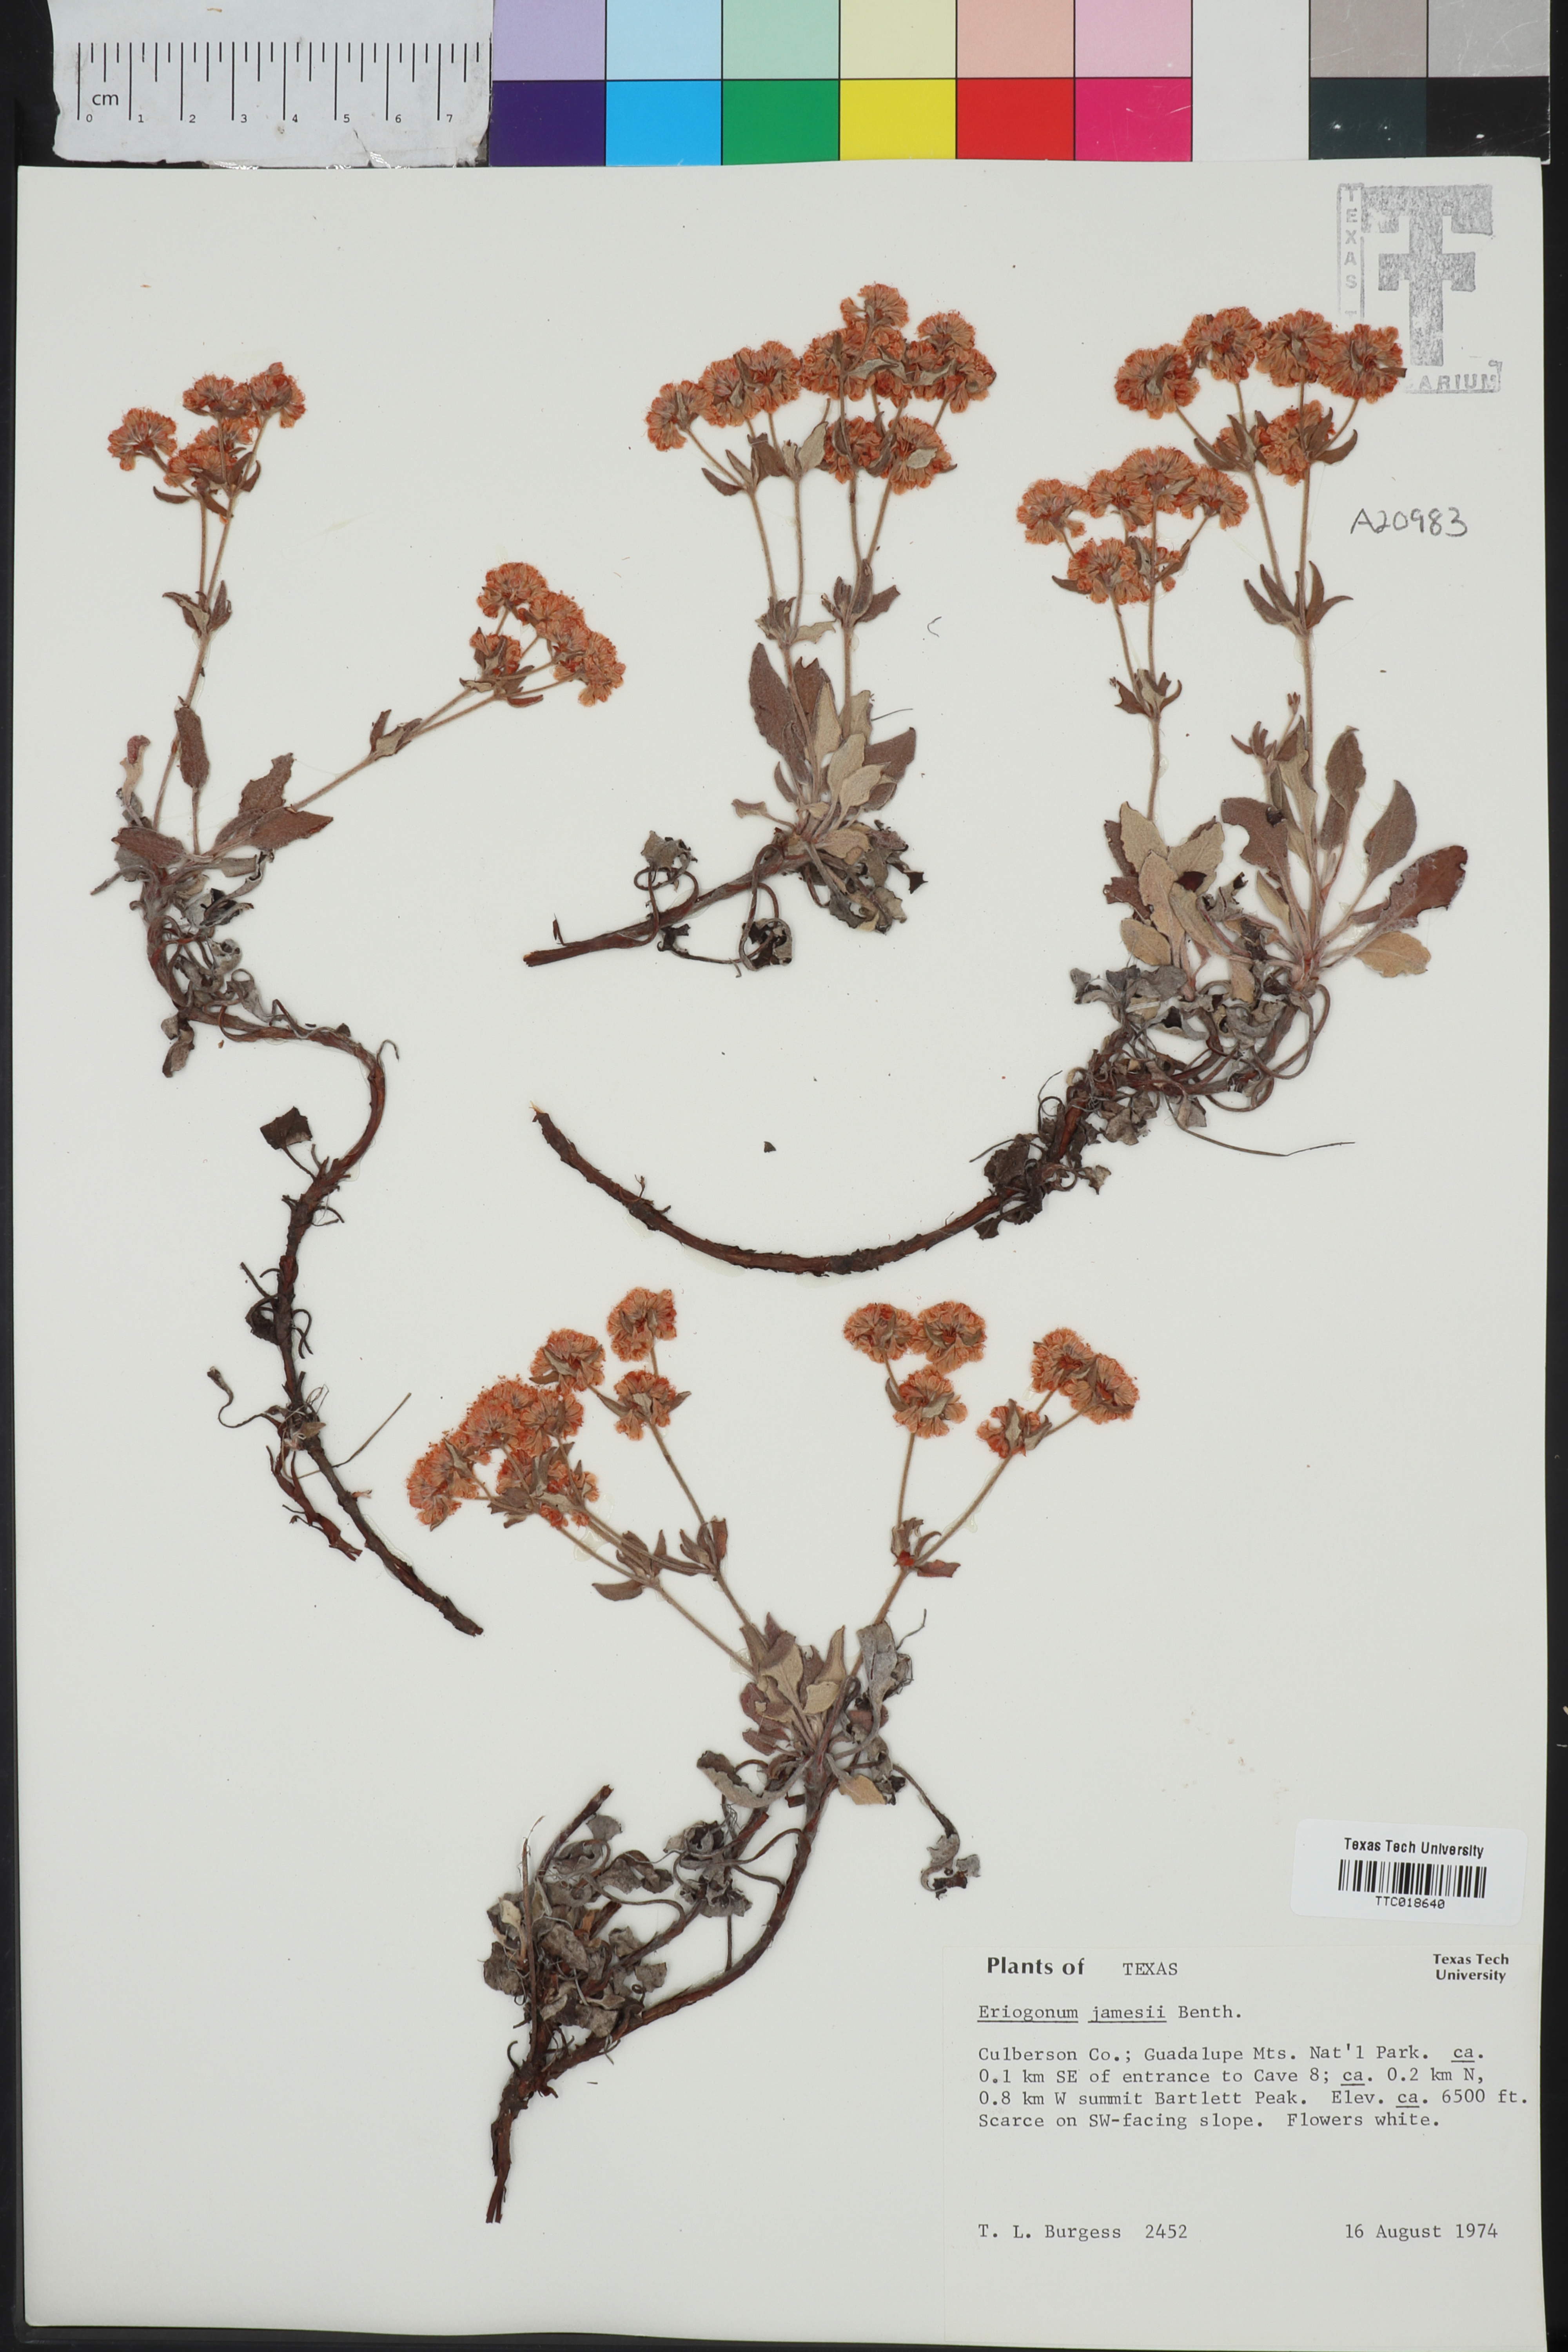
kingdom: Plantae
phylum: Tracheophyta
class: Magnoliopsida
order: Caryophyllales
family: Polygonaceae
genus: Eriogonum
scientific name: Eriogonum jamesii
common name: Antelope-sage
